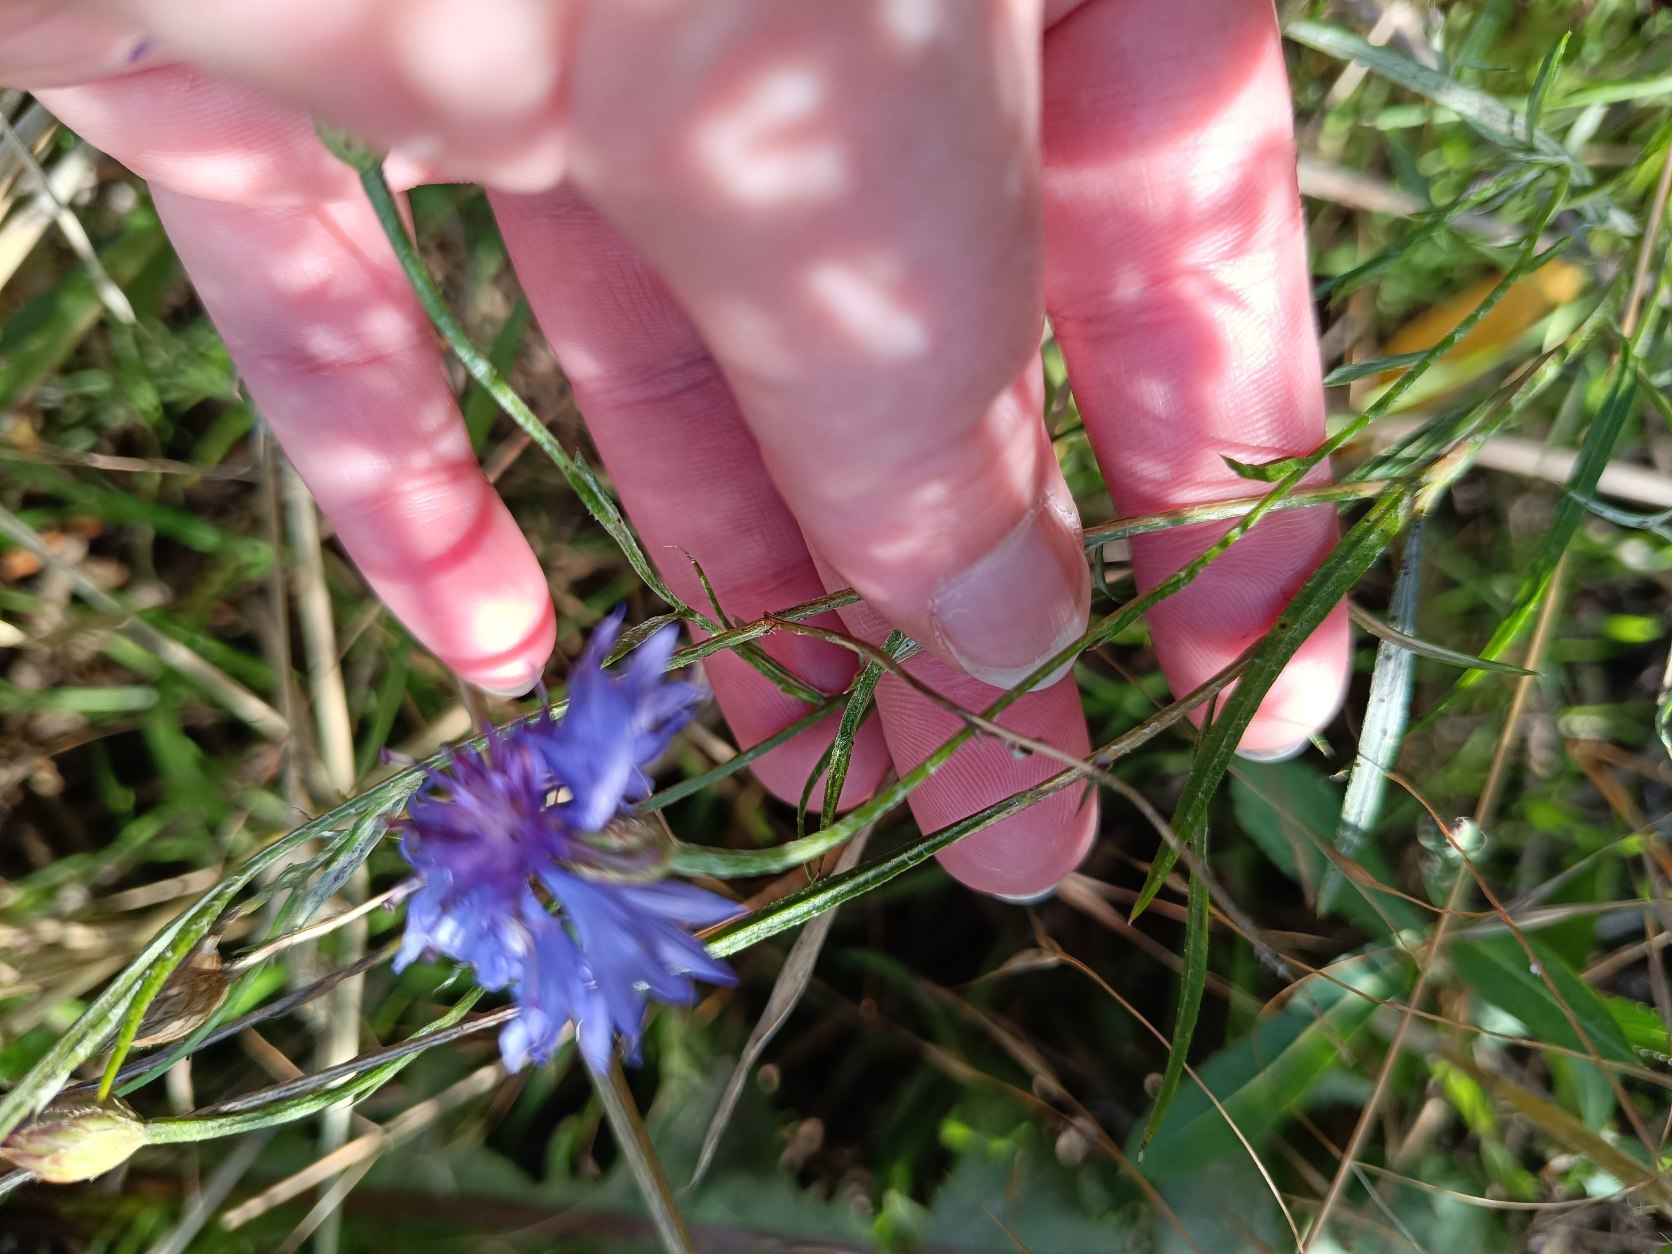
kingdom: Plantae
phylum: Tracheophyta
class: Magnoliopsida
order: Asterales
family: Asteraceae
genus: Centaurea
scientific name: Centaurea cyanus
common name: Kornblomst
